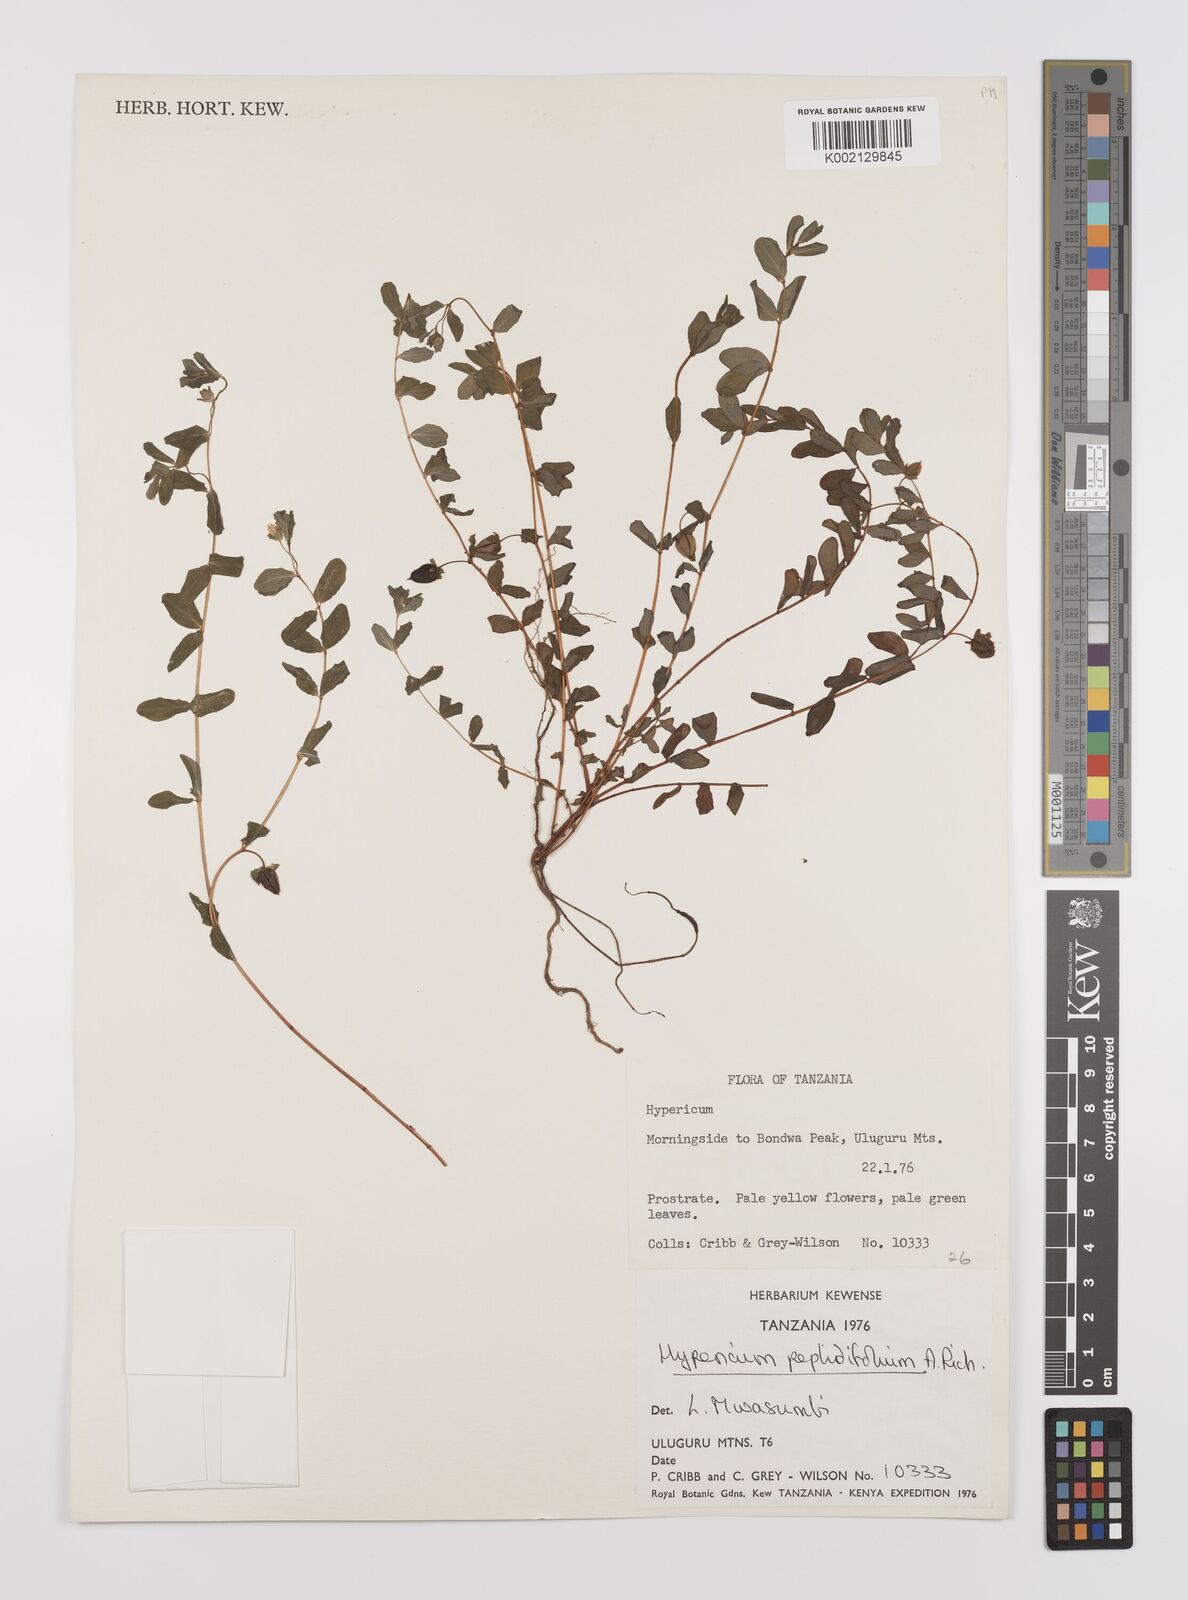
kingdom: Plantae
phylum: Tracheophyta
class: Magnoliopsida
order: Malpighiales
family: Hypericaceae
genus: Hypericum
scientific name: Hypericum peplidifolium
